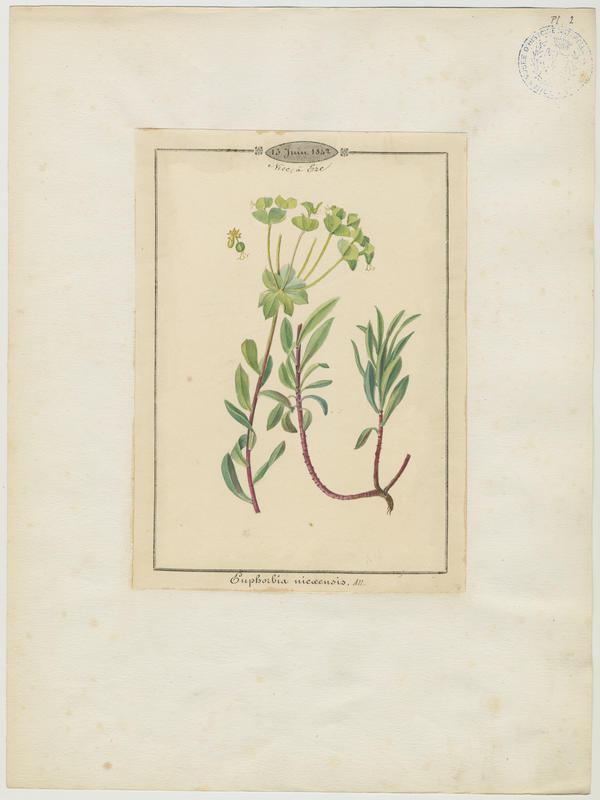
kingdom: Plantae
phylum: Tracheophyta
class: Magnoliopsida
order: Malpighiales
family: Euphorbiaceae
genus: Euphorbia
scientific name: Euphorbia nicaeensis
